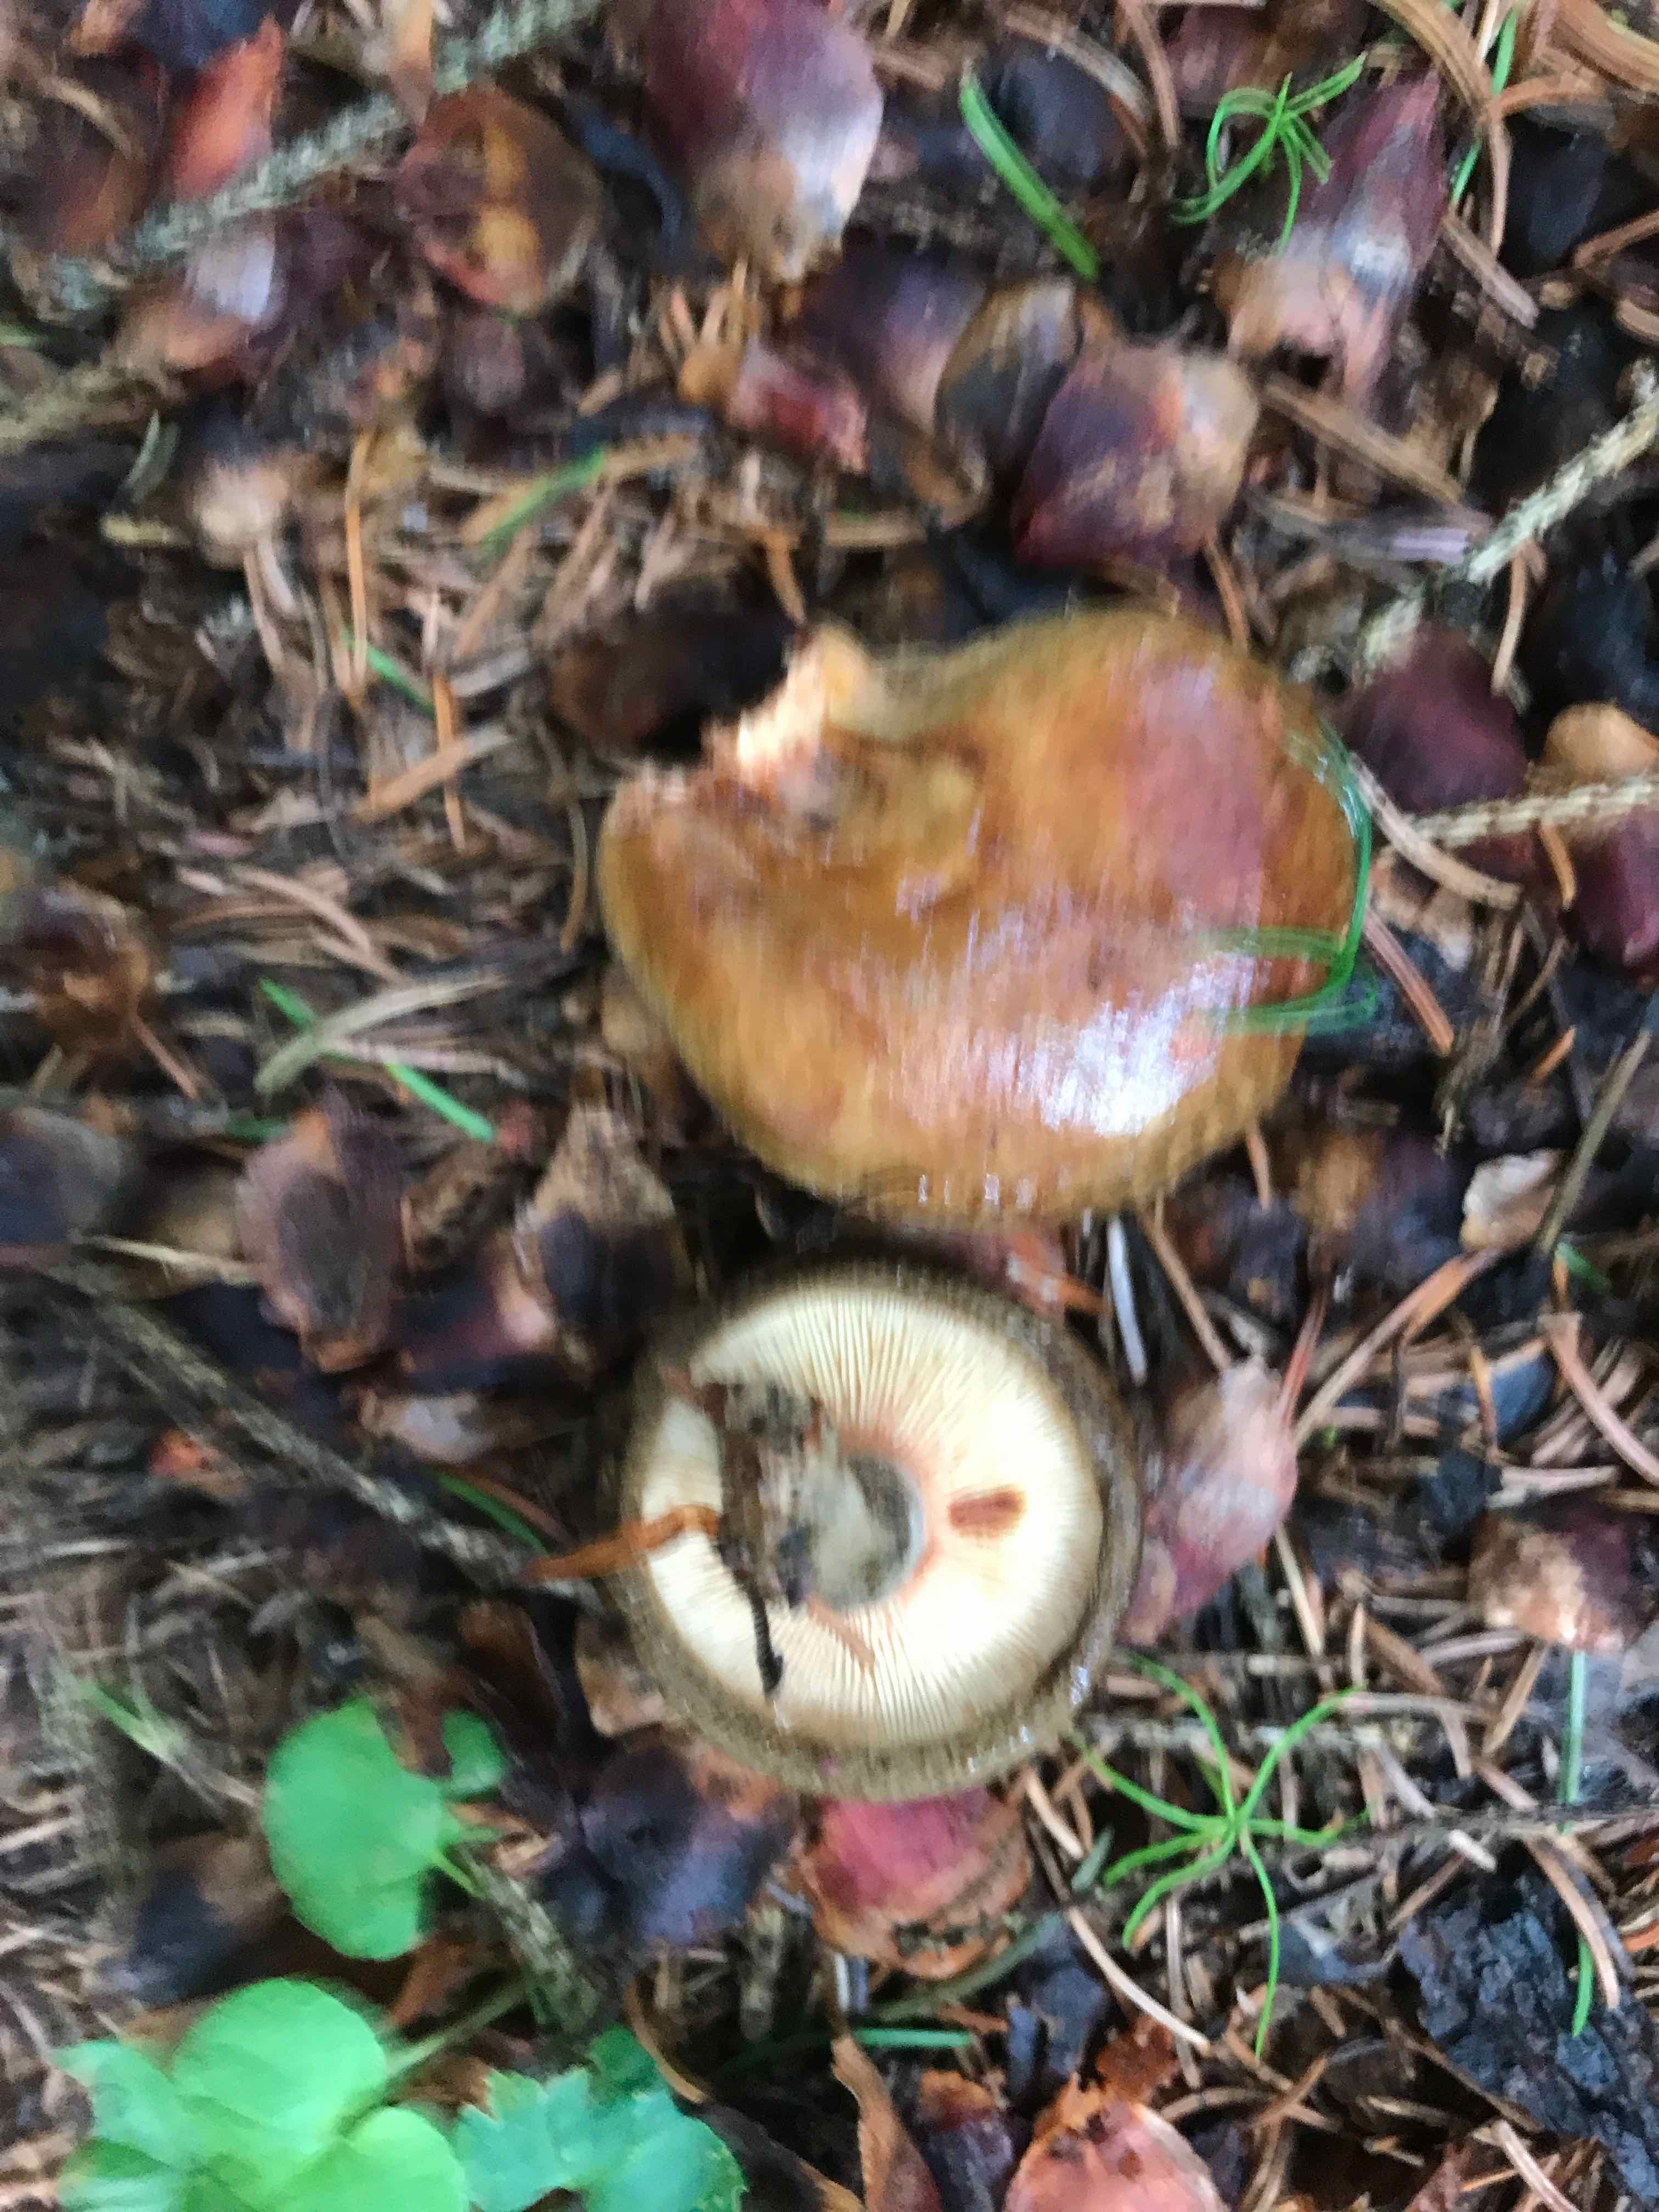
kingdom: Fungi
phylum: Basidiomycota
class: Agaricomycetes
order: Boletales
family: Paxillaceae
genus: Paxillus
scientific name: Paxillus involutus
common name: almindelig netbladhat
